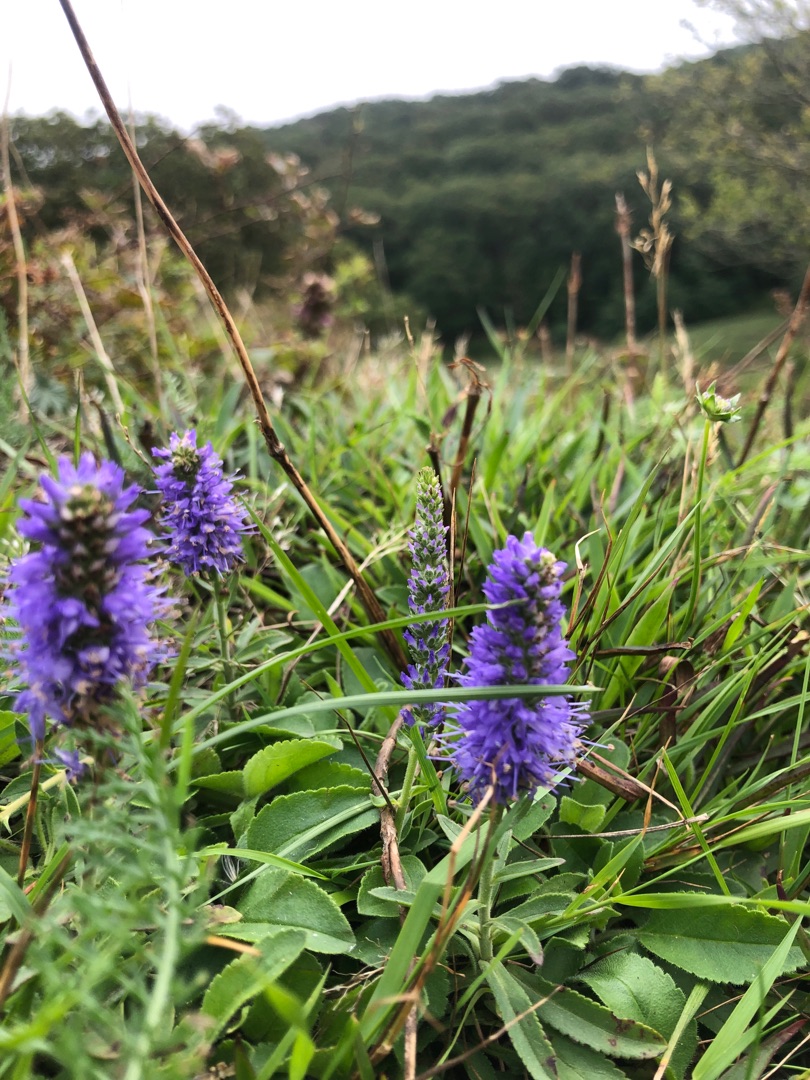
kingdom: Plantae
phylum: Tracheophyta
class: Magnoliopsida
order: Lamiales
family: Plantaginaceae
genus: Veronica
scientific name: Veronica spicata
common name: Aks-ærenpris
